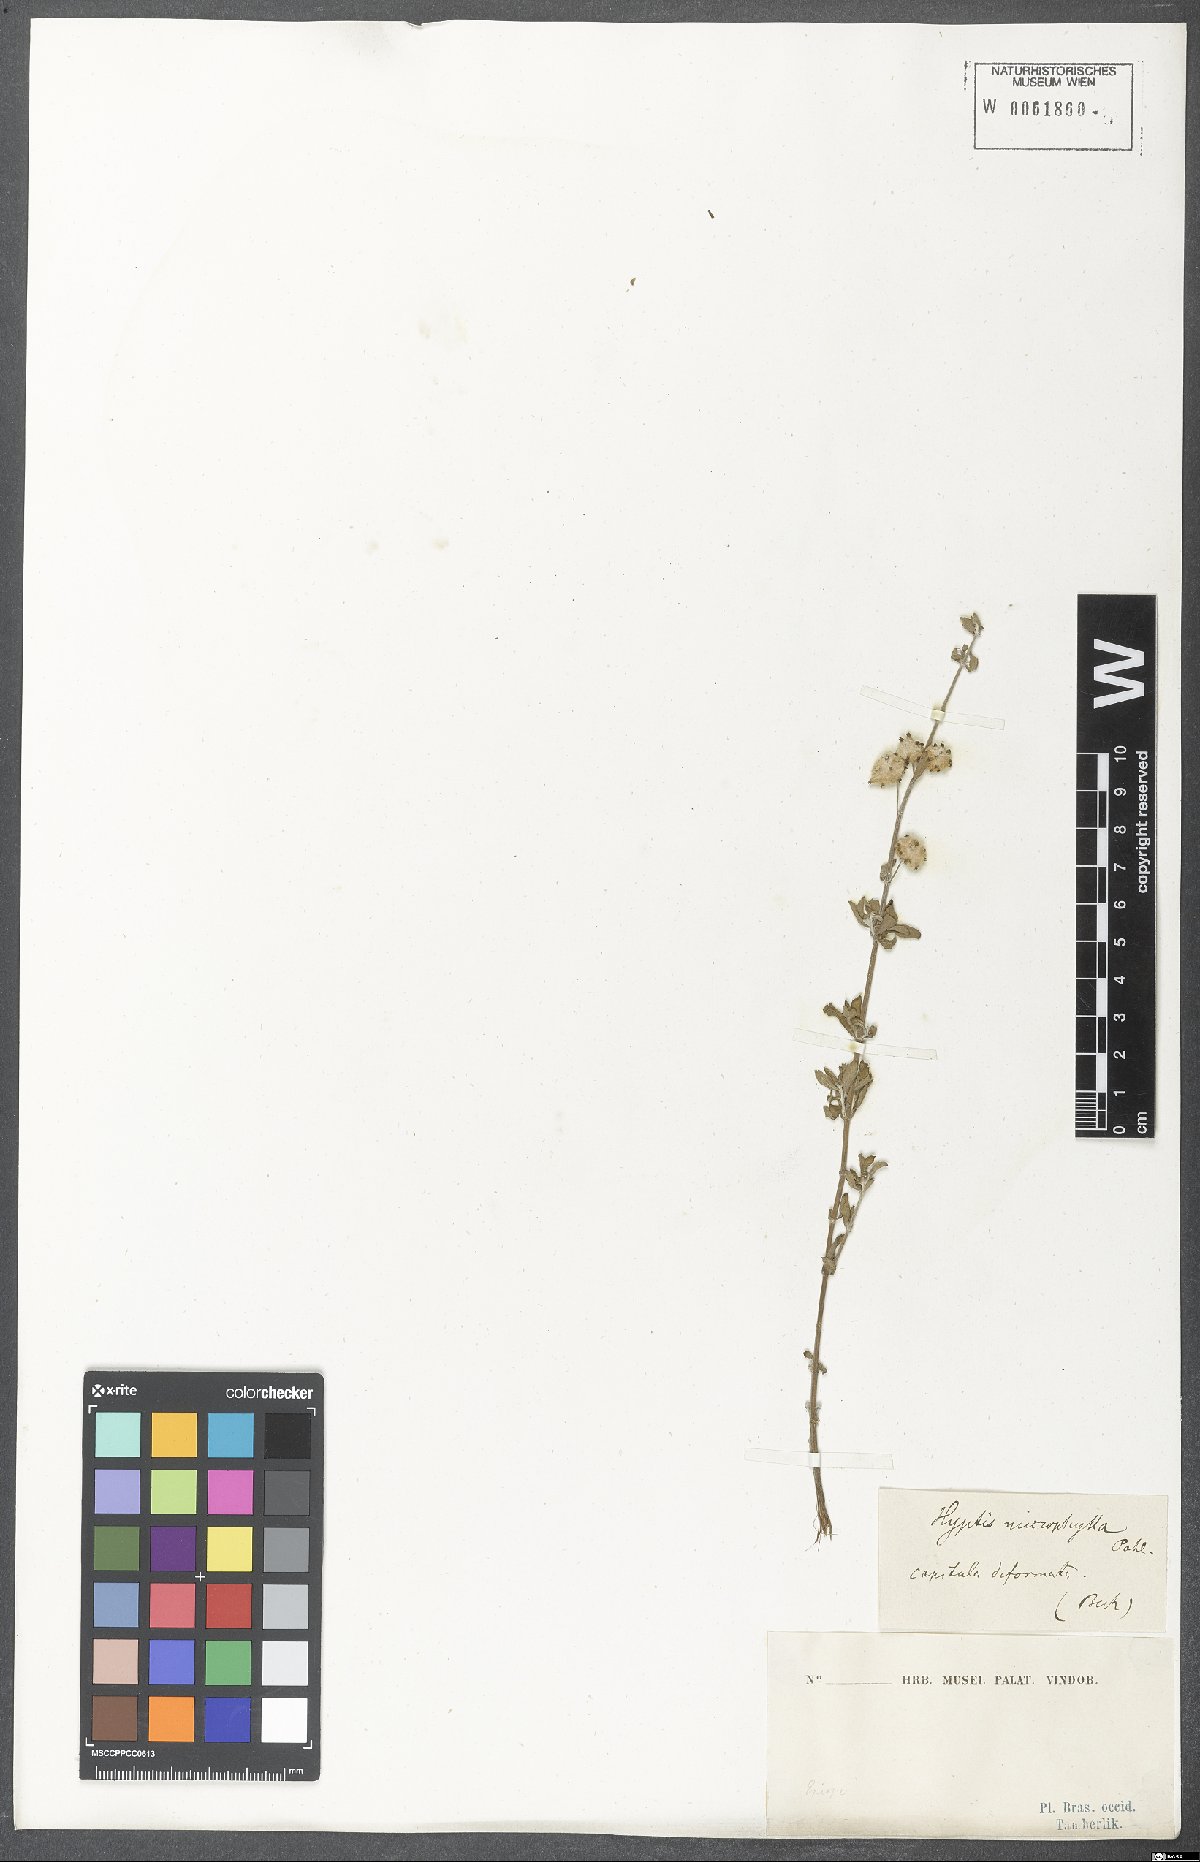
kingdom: Plantae
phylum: Tracheophyta
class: Magnoliopsida
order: Lamiales
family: Lamiaceae
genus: Hyptis
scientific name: Hyptis microphylla
